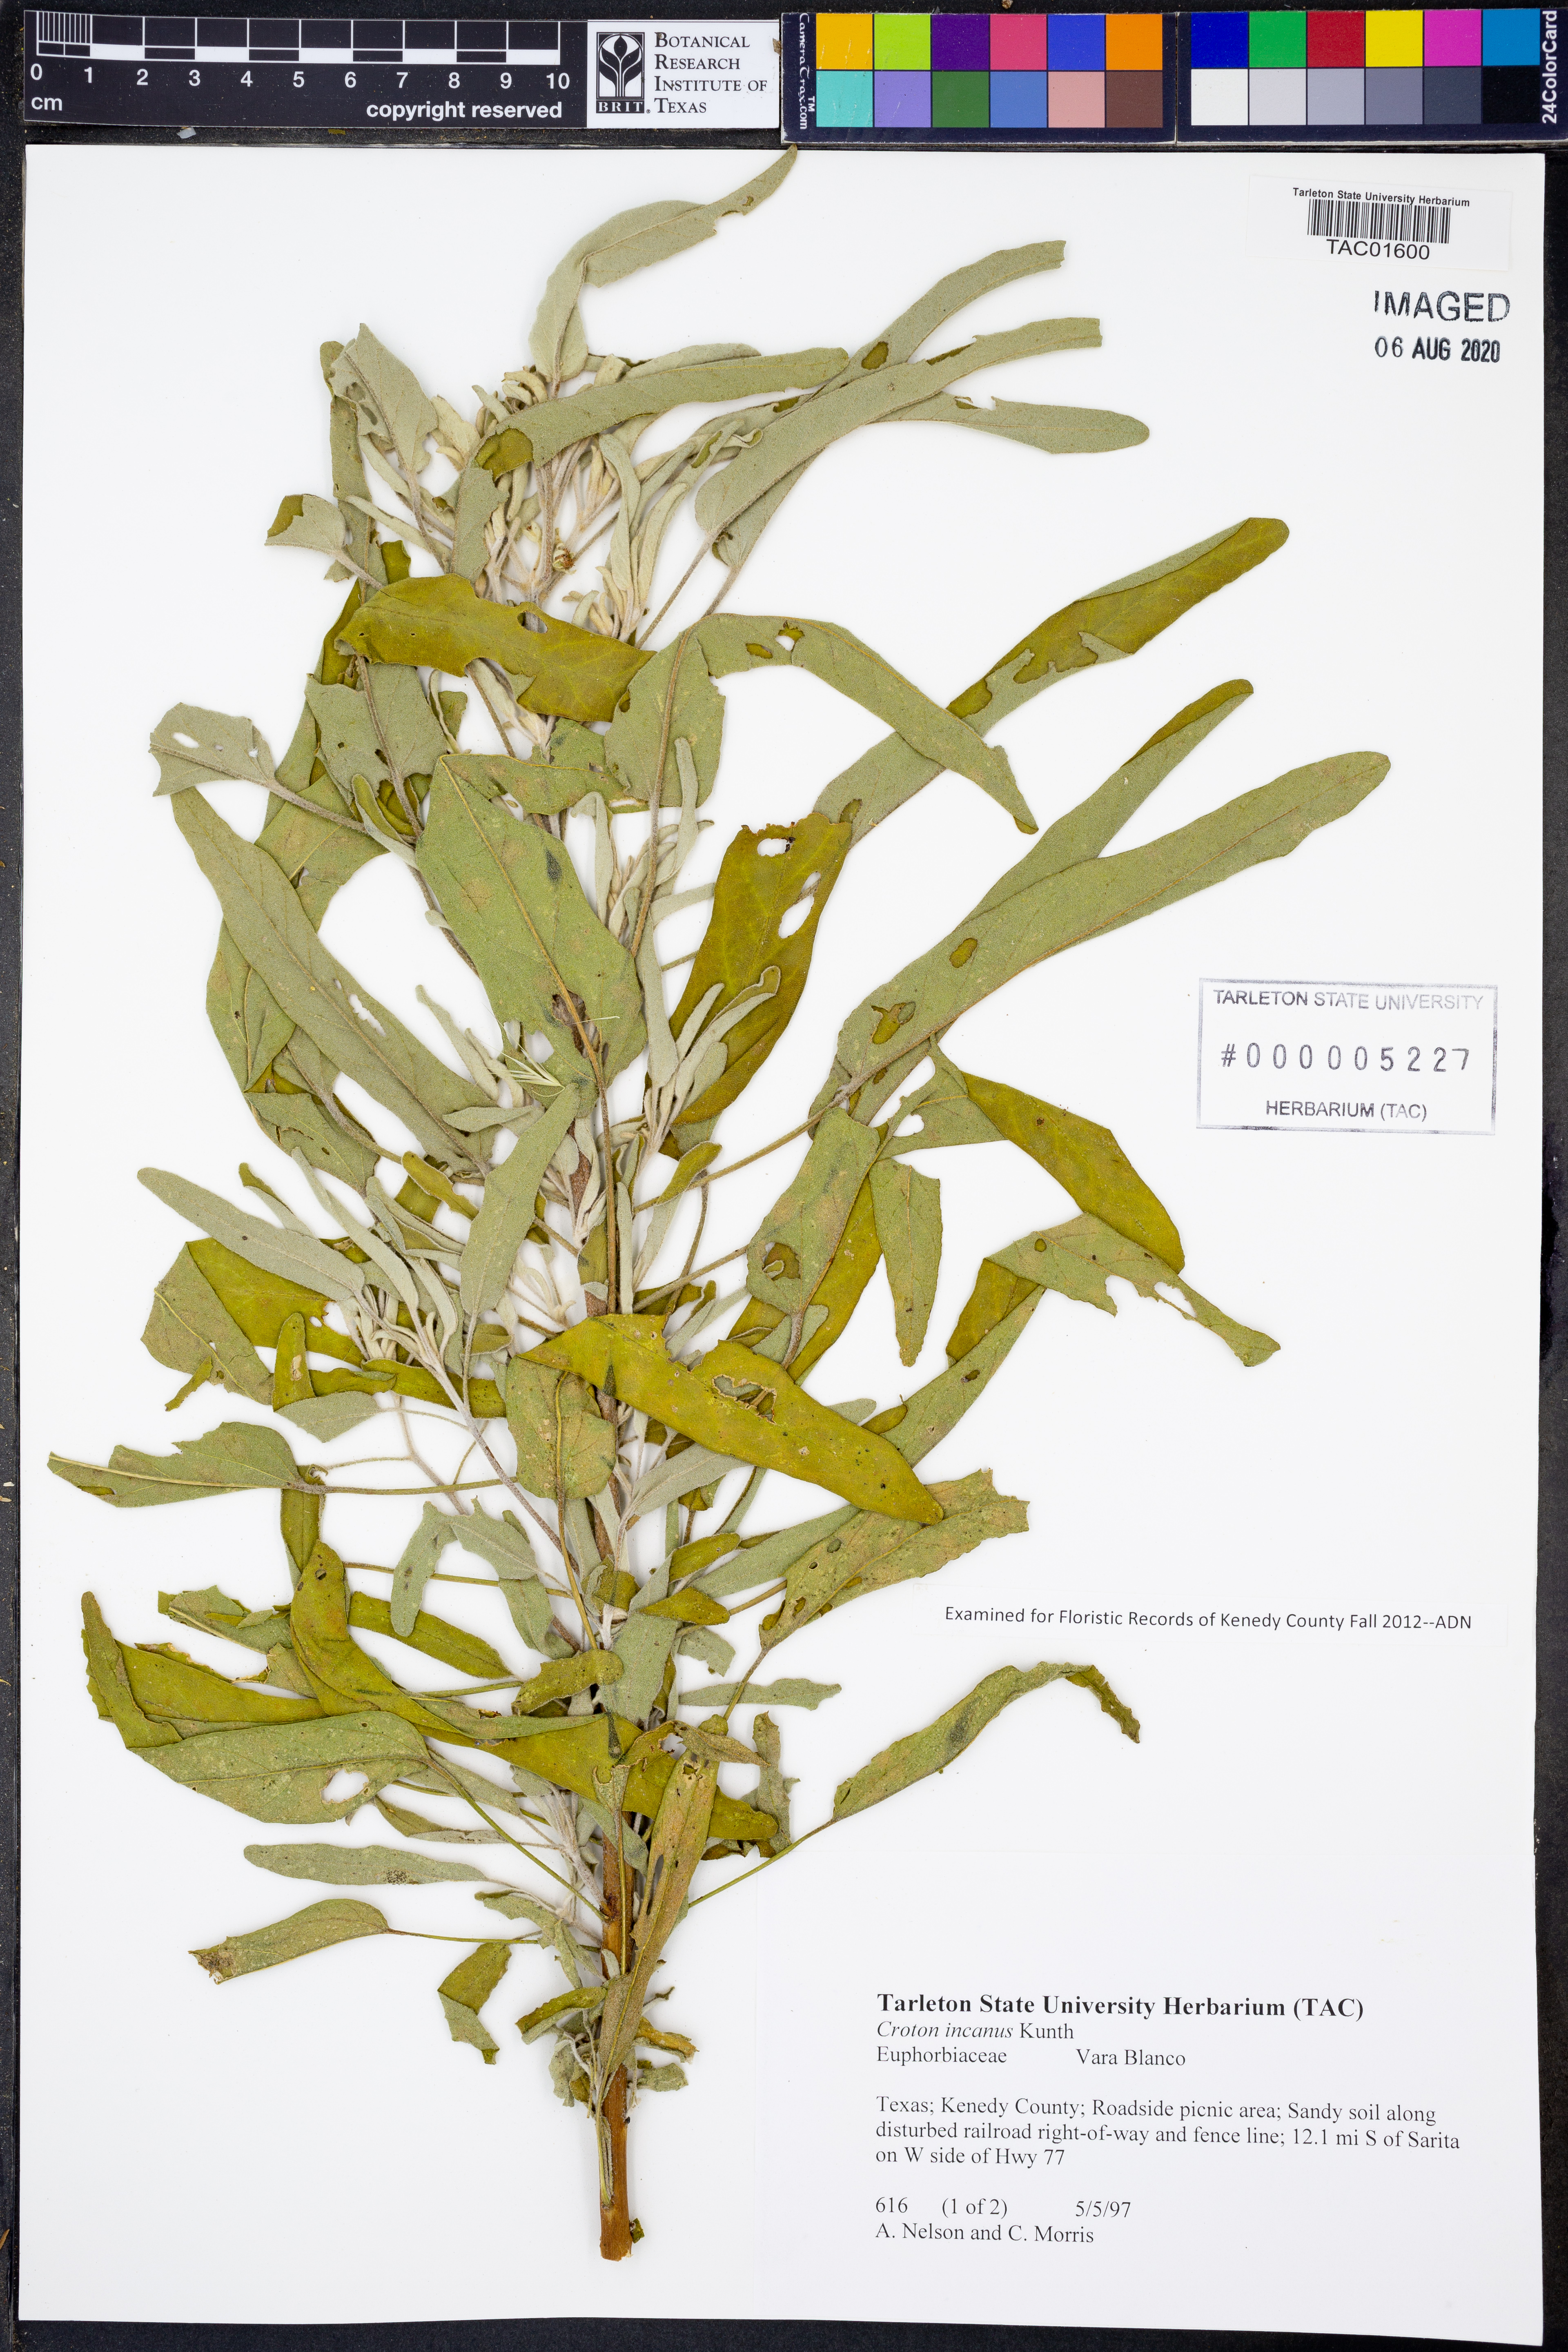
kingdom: Plantae
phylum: Tracheophyta
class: Magnoliopsida
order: Malpighiales
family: Euphorbiaceae
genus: Croton
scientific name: Croton incanus
